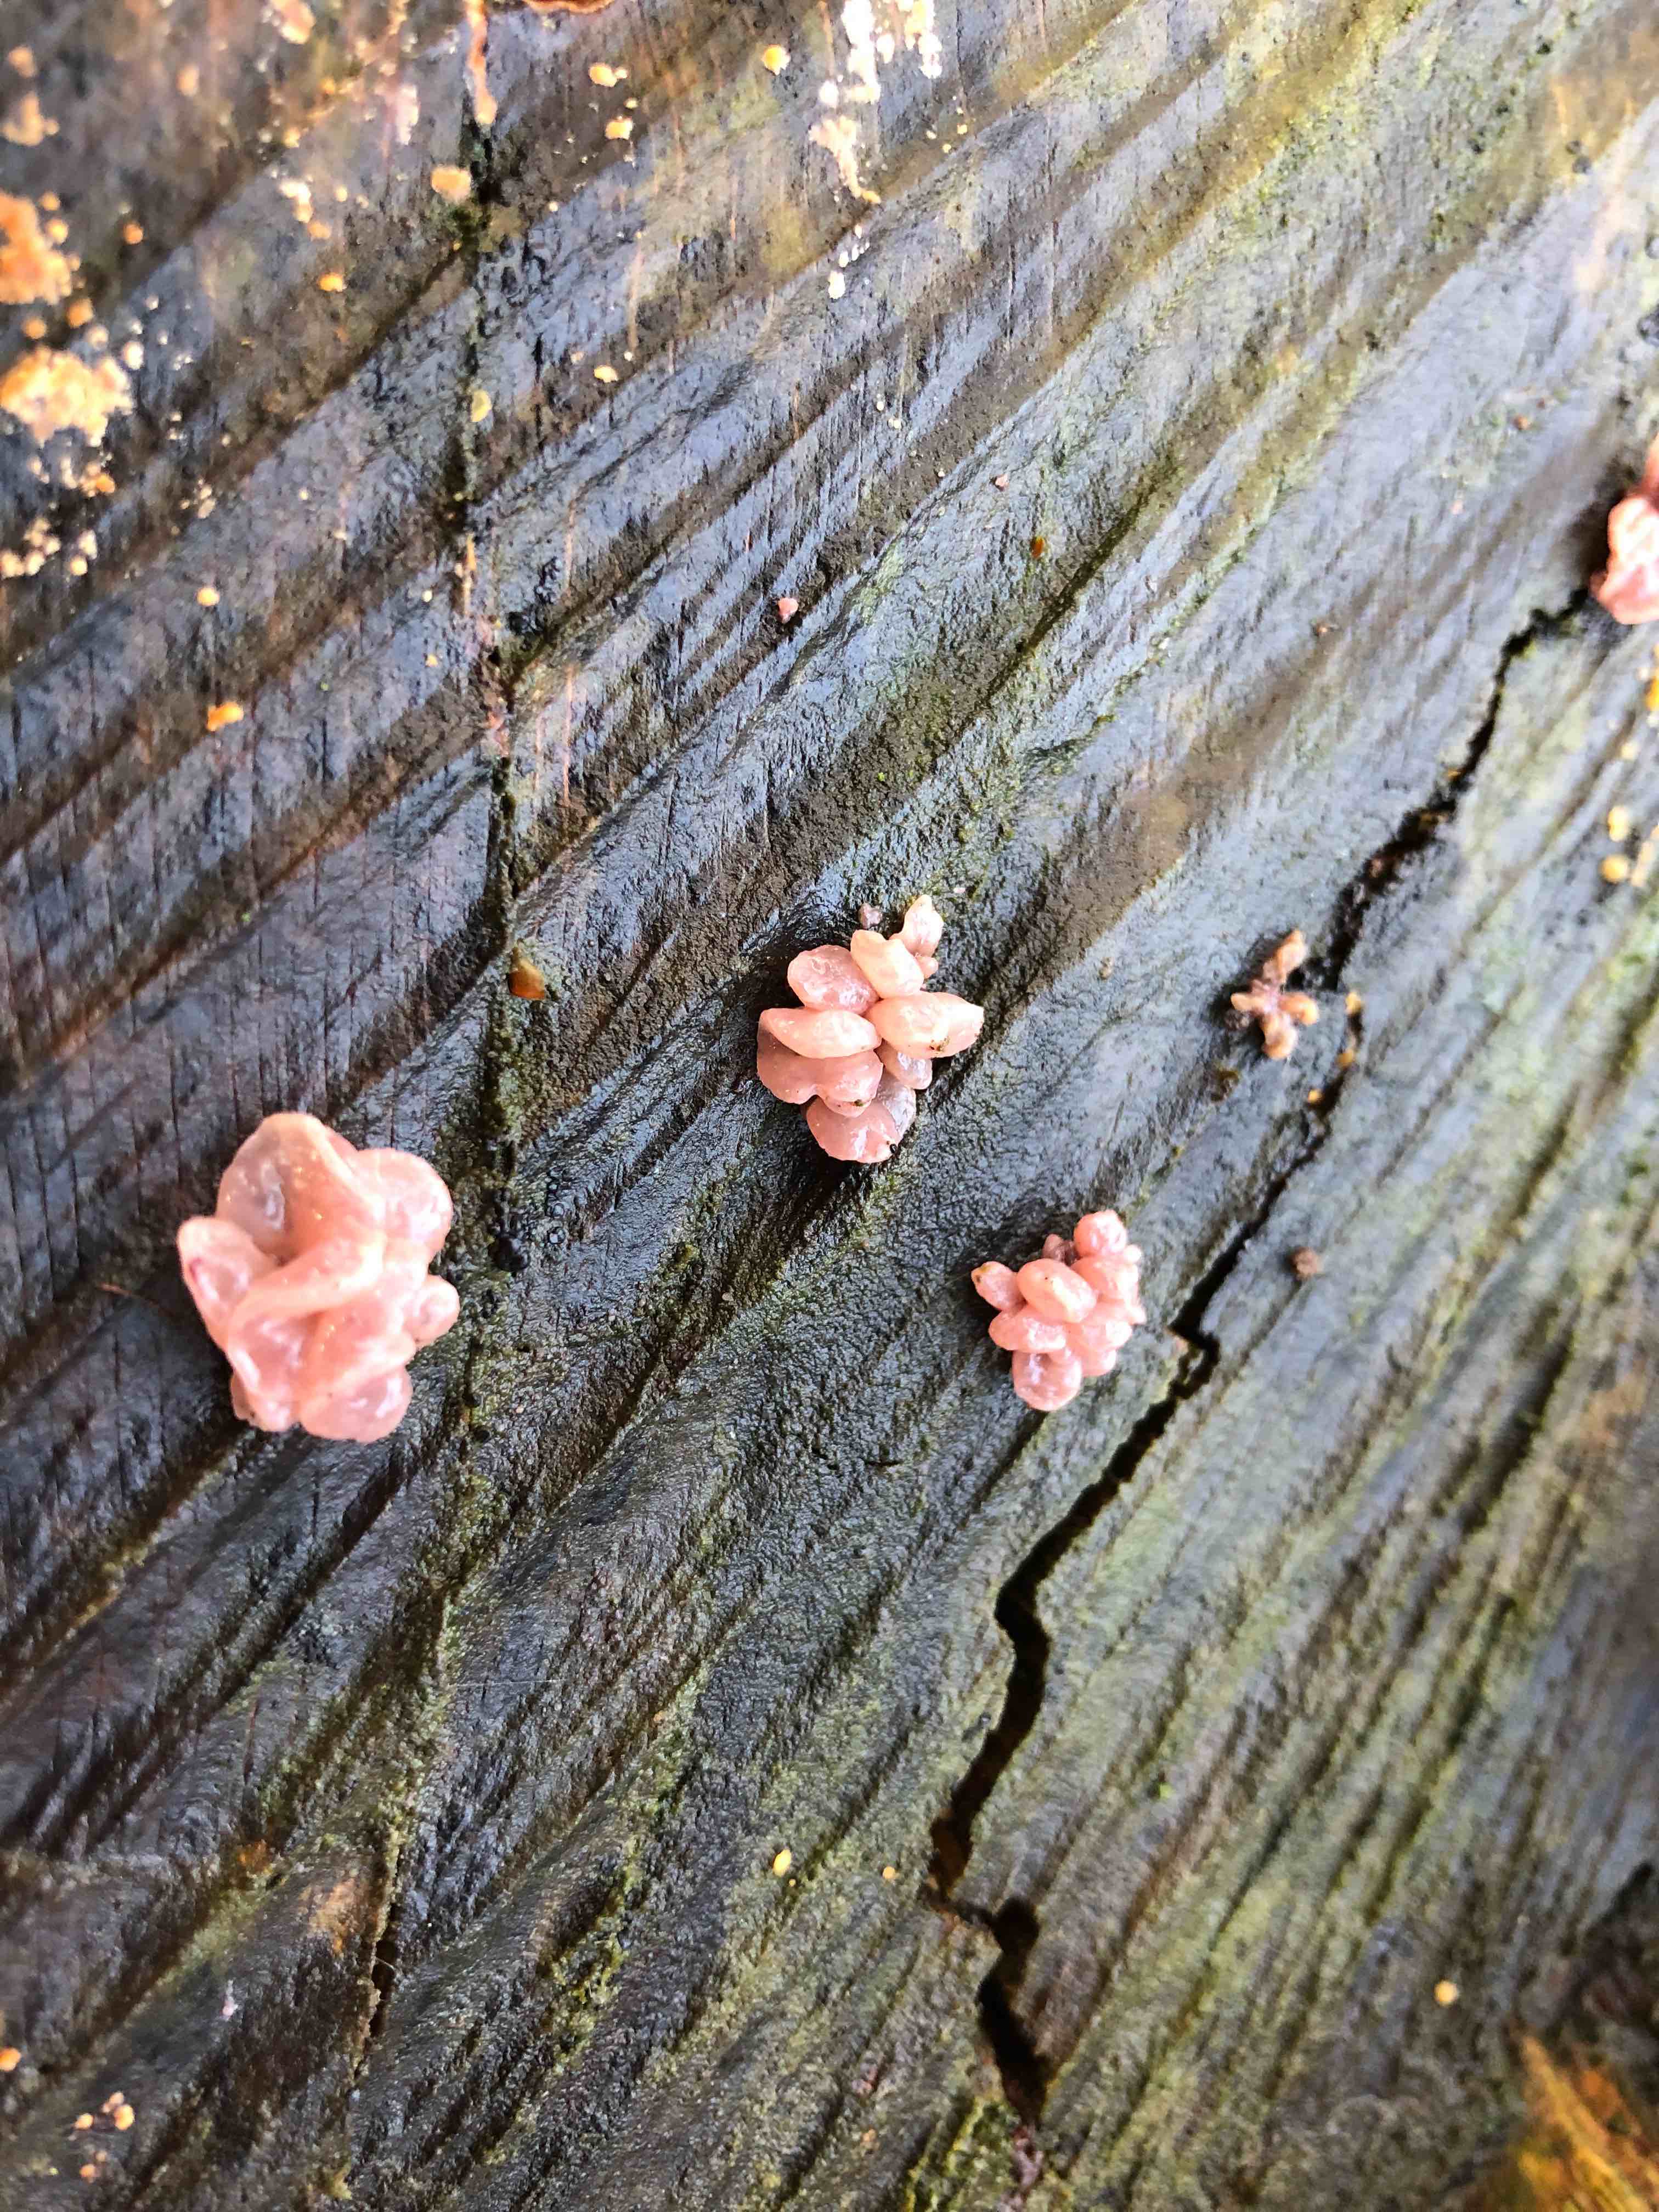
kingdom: Fungi
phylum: Ascomycota
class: Leotiomycetes
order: Helotiales
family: Gelatinodiscaceae
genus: Ascocoryne
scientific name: Ascocoryne sarcoides
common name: rødlilla sejskive
